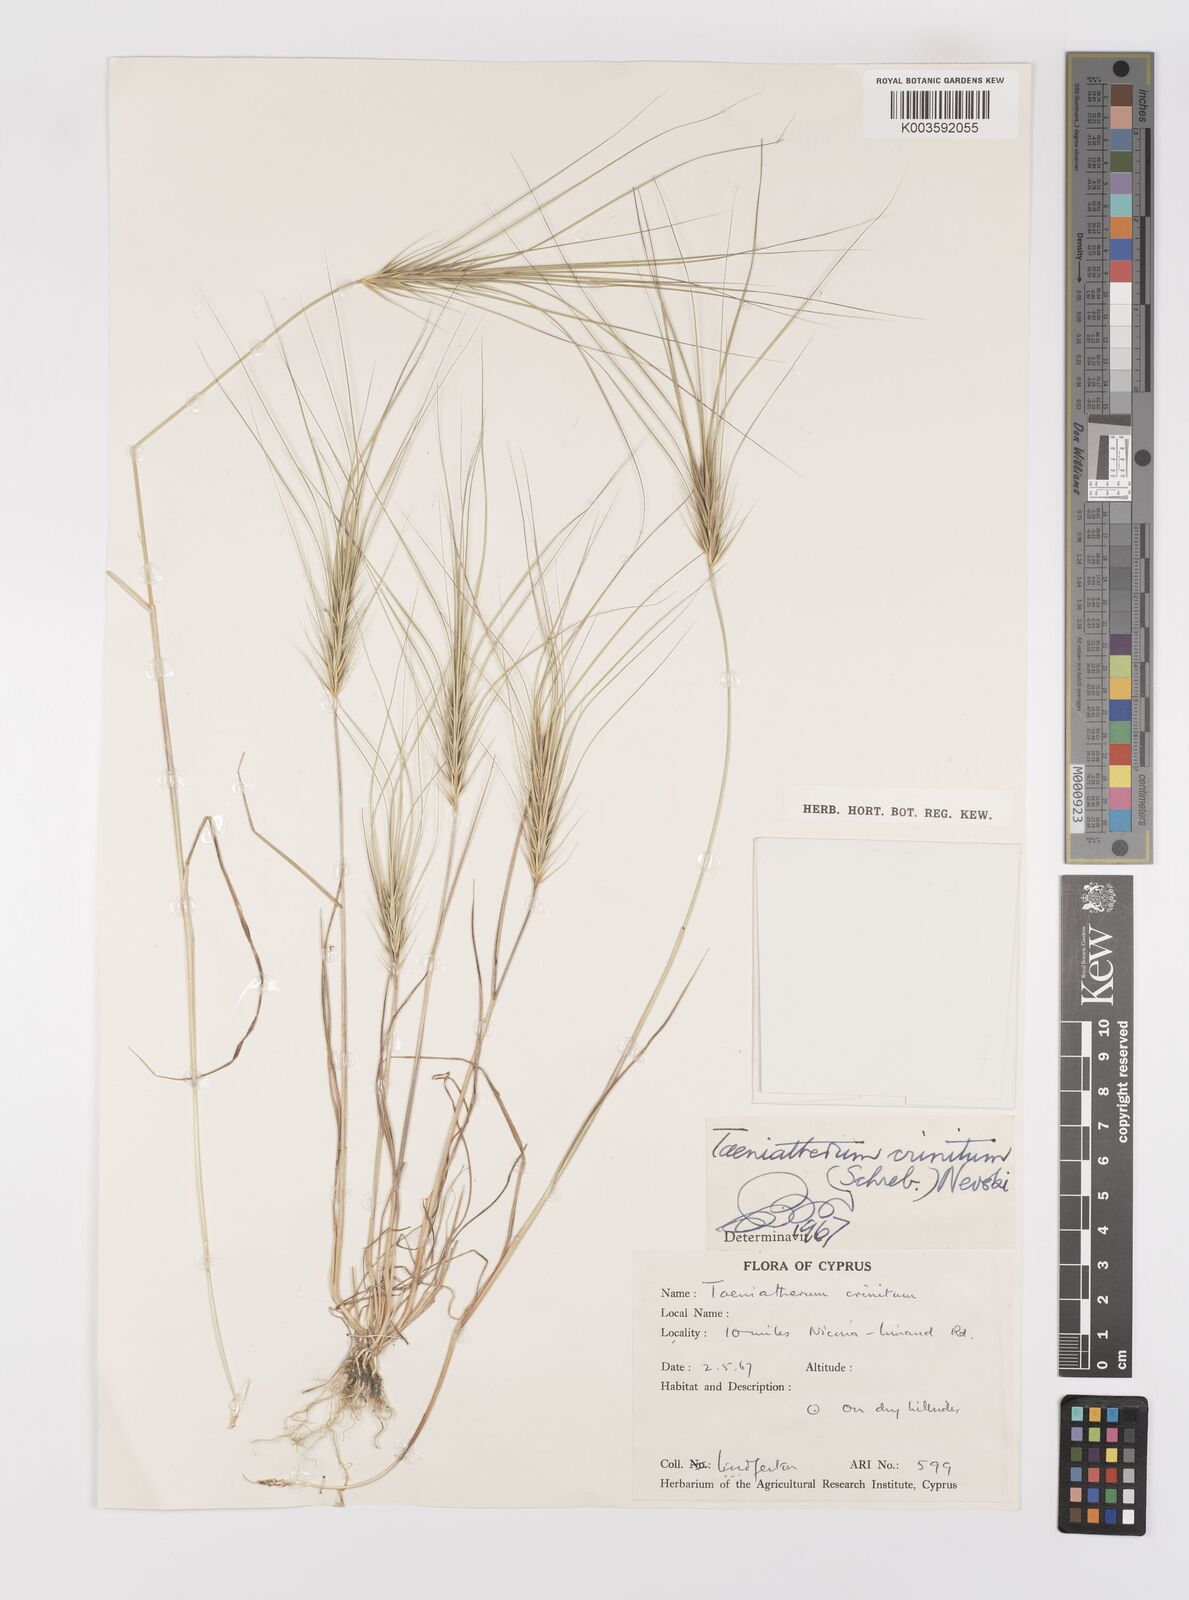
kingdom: Plantae
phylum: Tracheophyta
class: Liliopsida
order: Poales
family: Poaceae
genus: Taeniatherum
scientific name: Taeniatherum caput-medusae
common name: Medusahead
